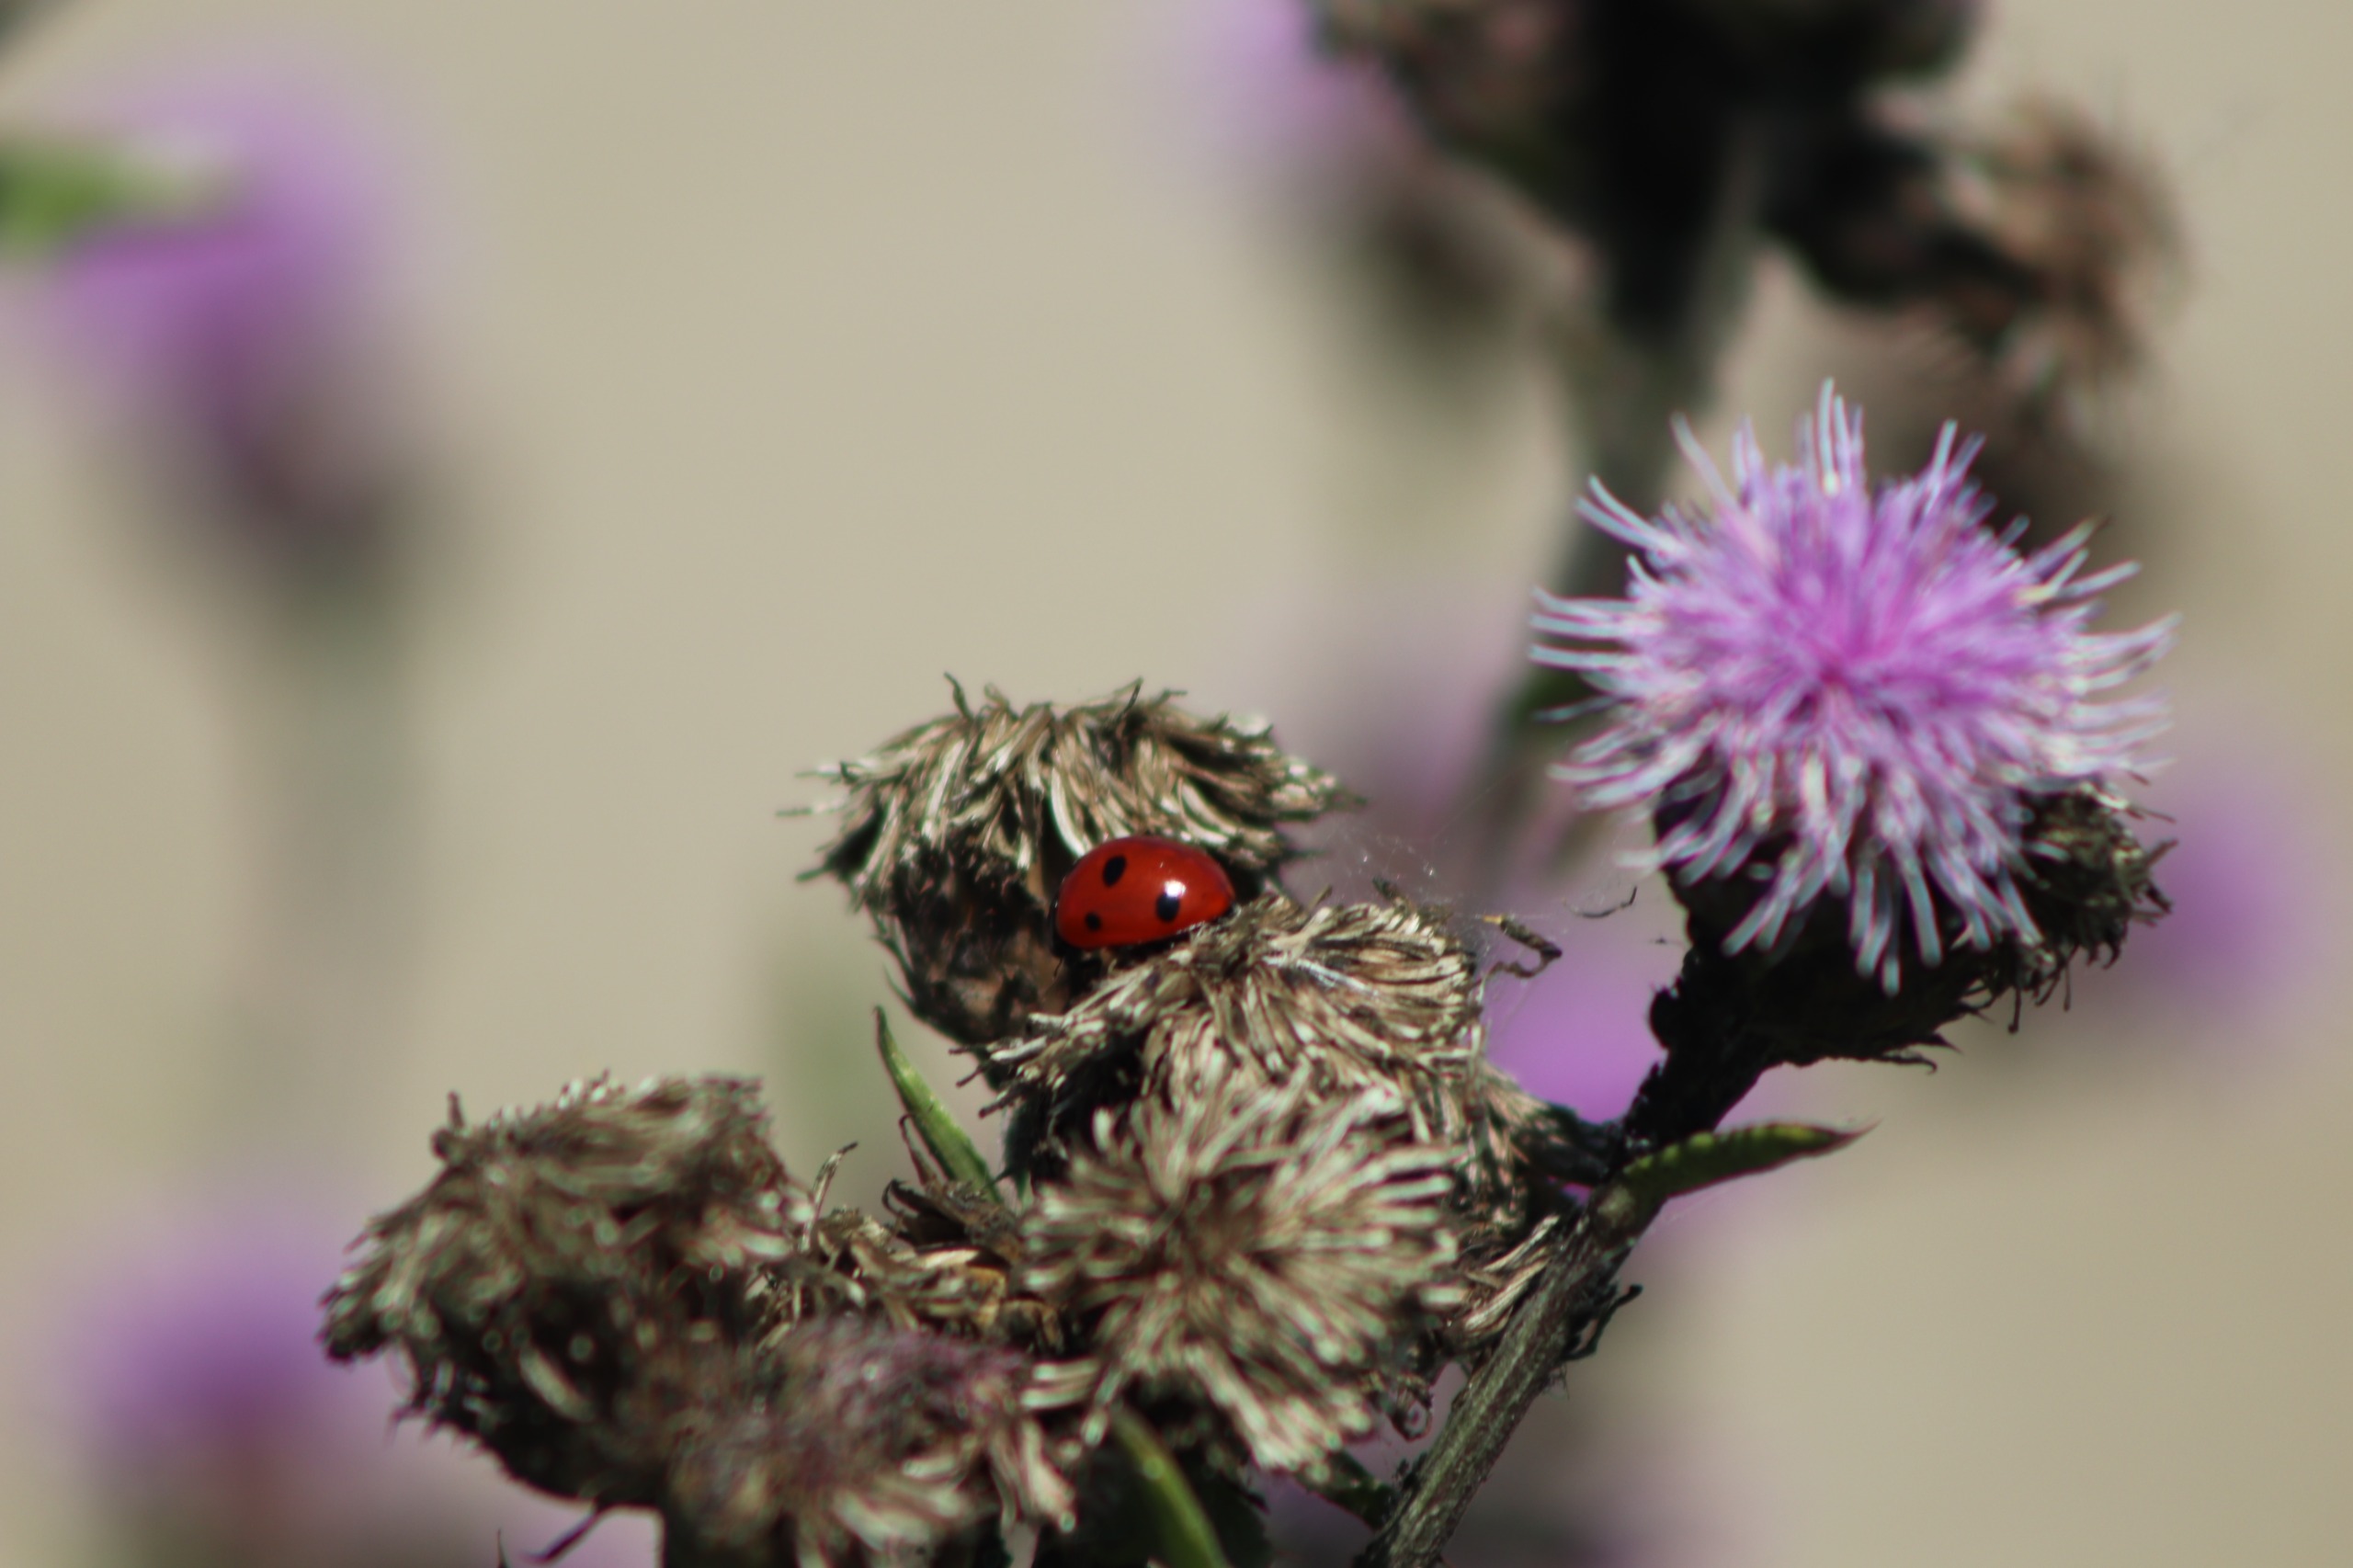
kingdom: Animalia
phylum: Arthropoda
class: Insecta
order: Coleoptera
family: Coccinellidae
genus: Coccinella
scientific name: Coccinella septempunctata
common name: Syvplettet mariehøne
